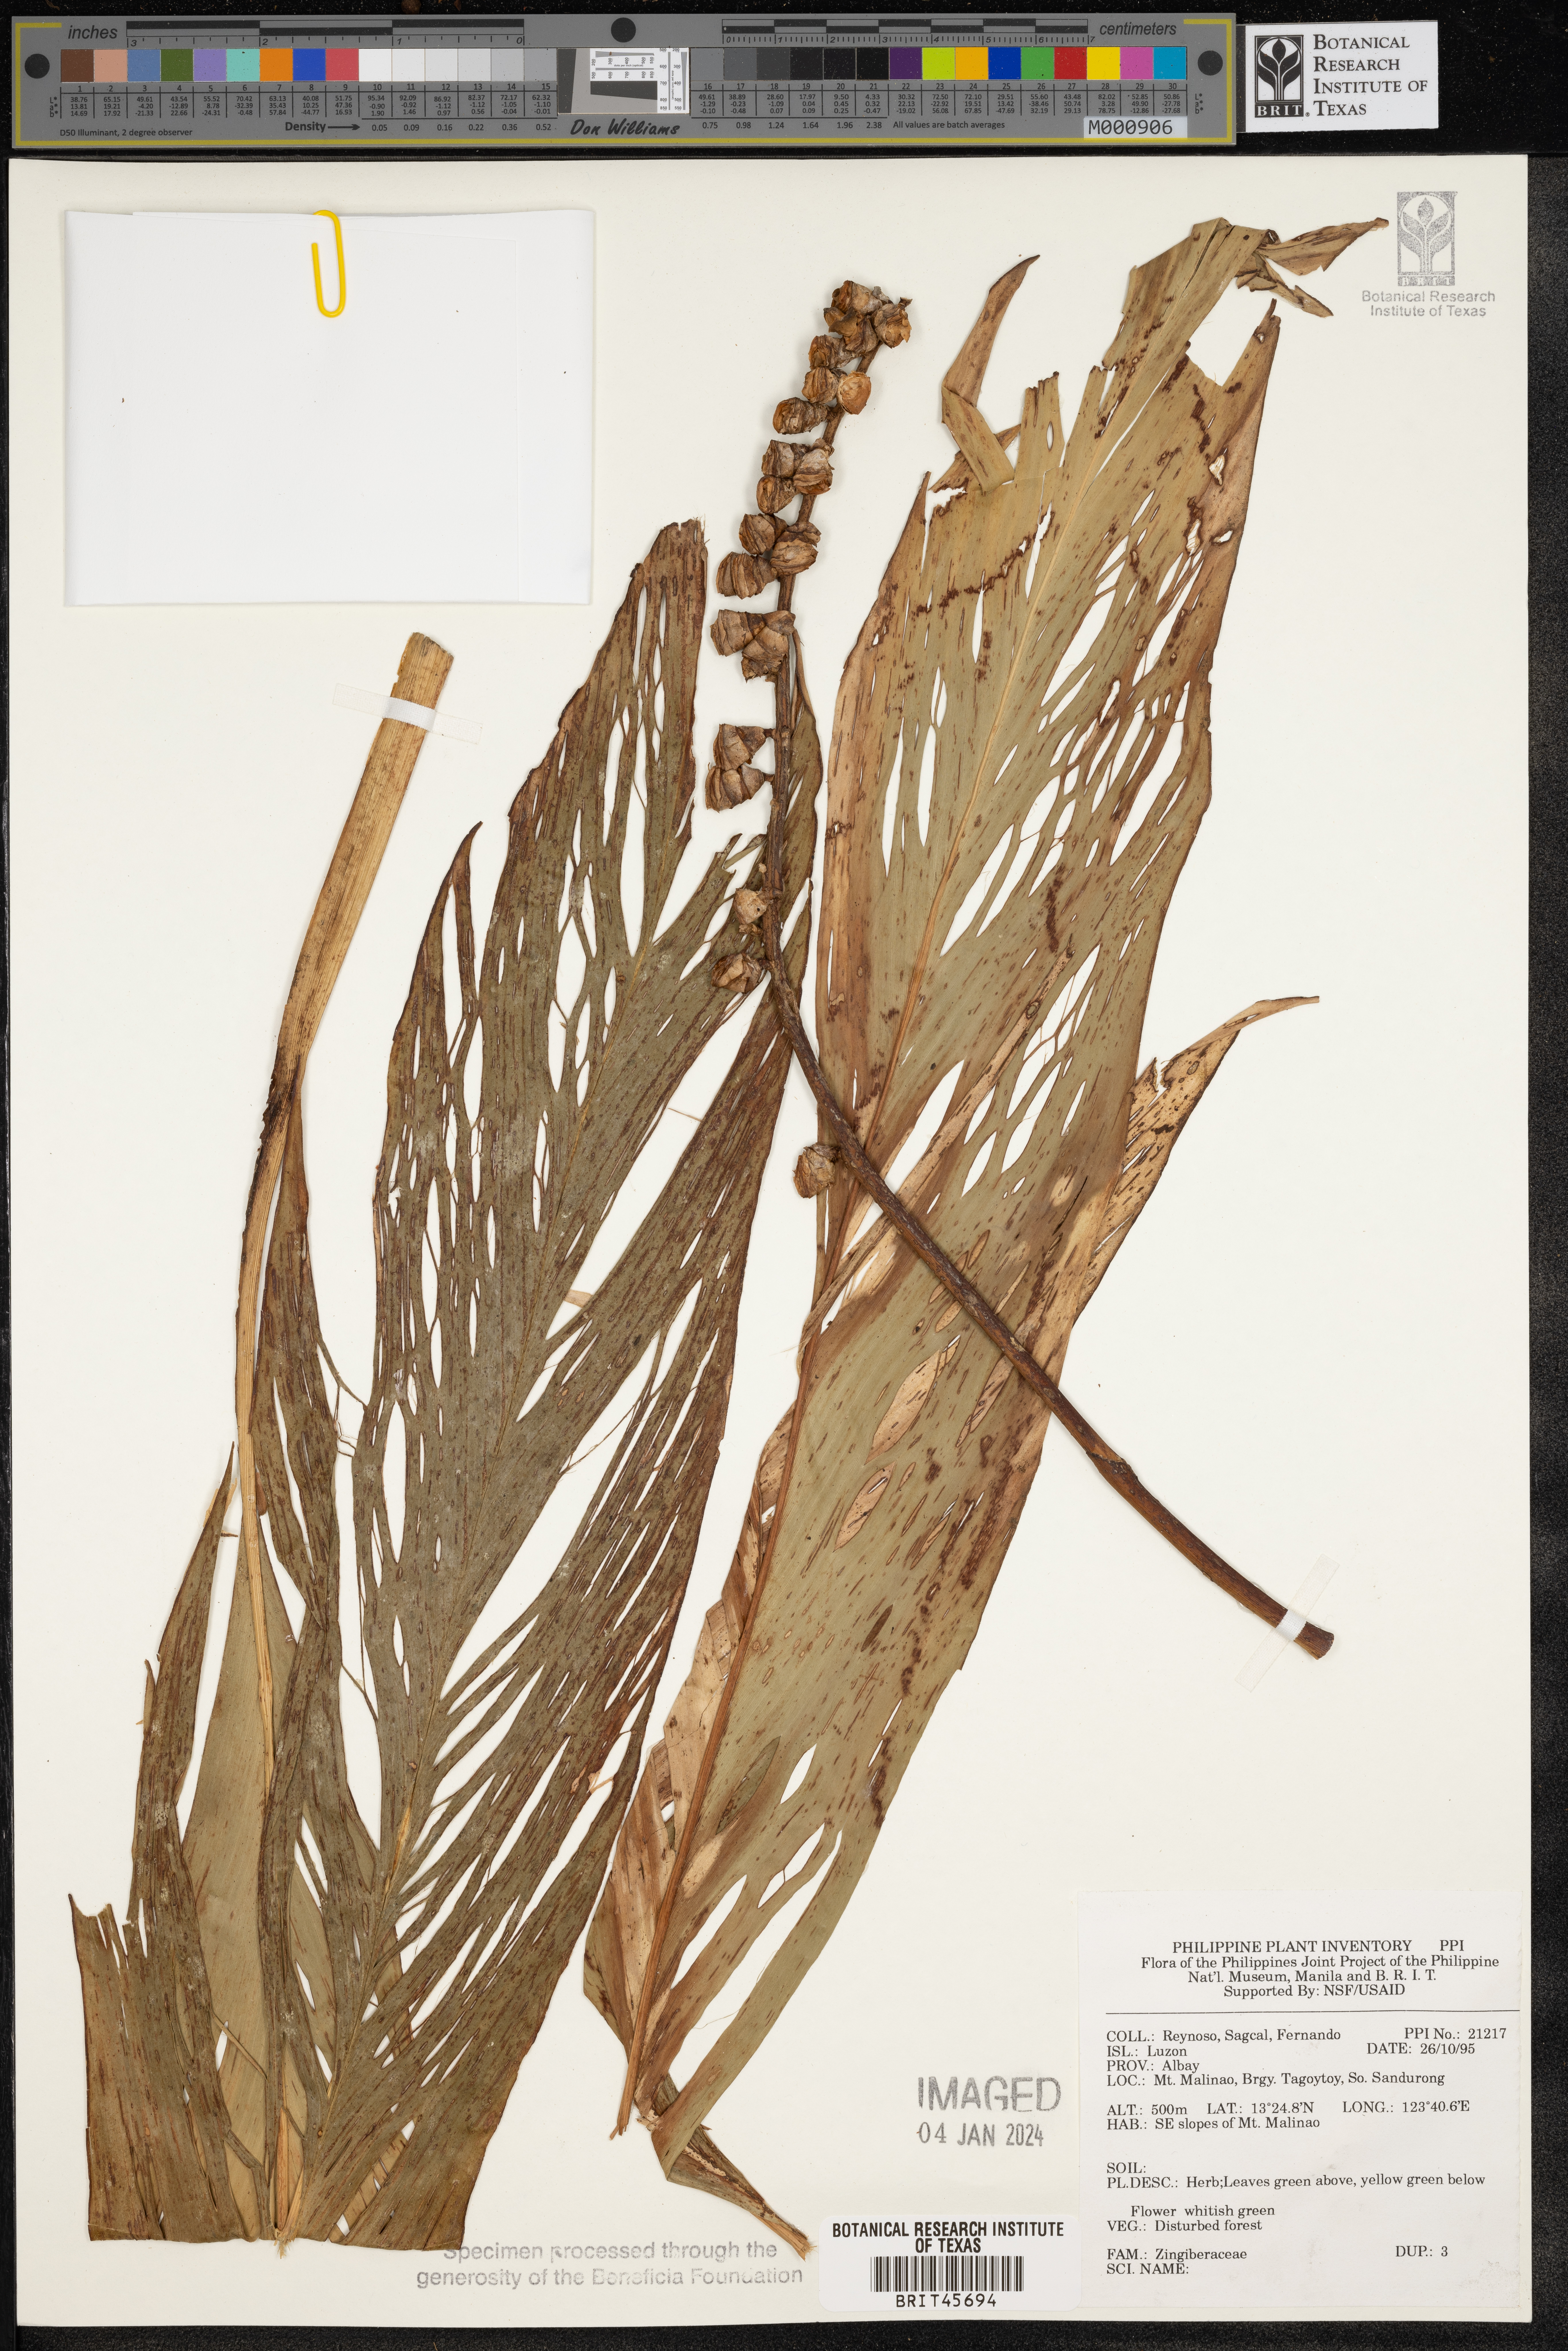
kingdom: Plantae
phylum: Tracheophyta
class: Liliopsida
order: Zingiberales
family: Zingiberaceae
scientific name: Zingiberaceae
